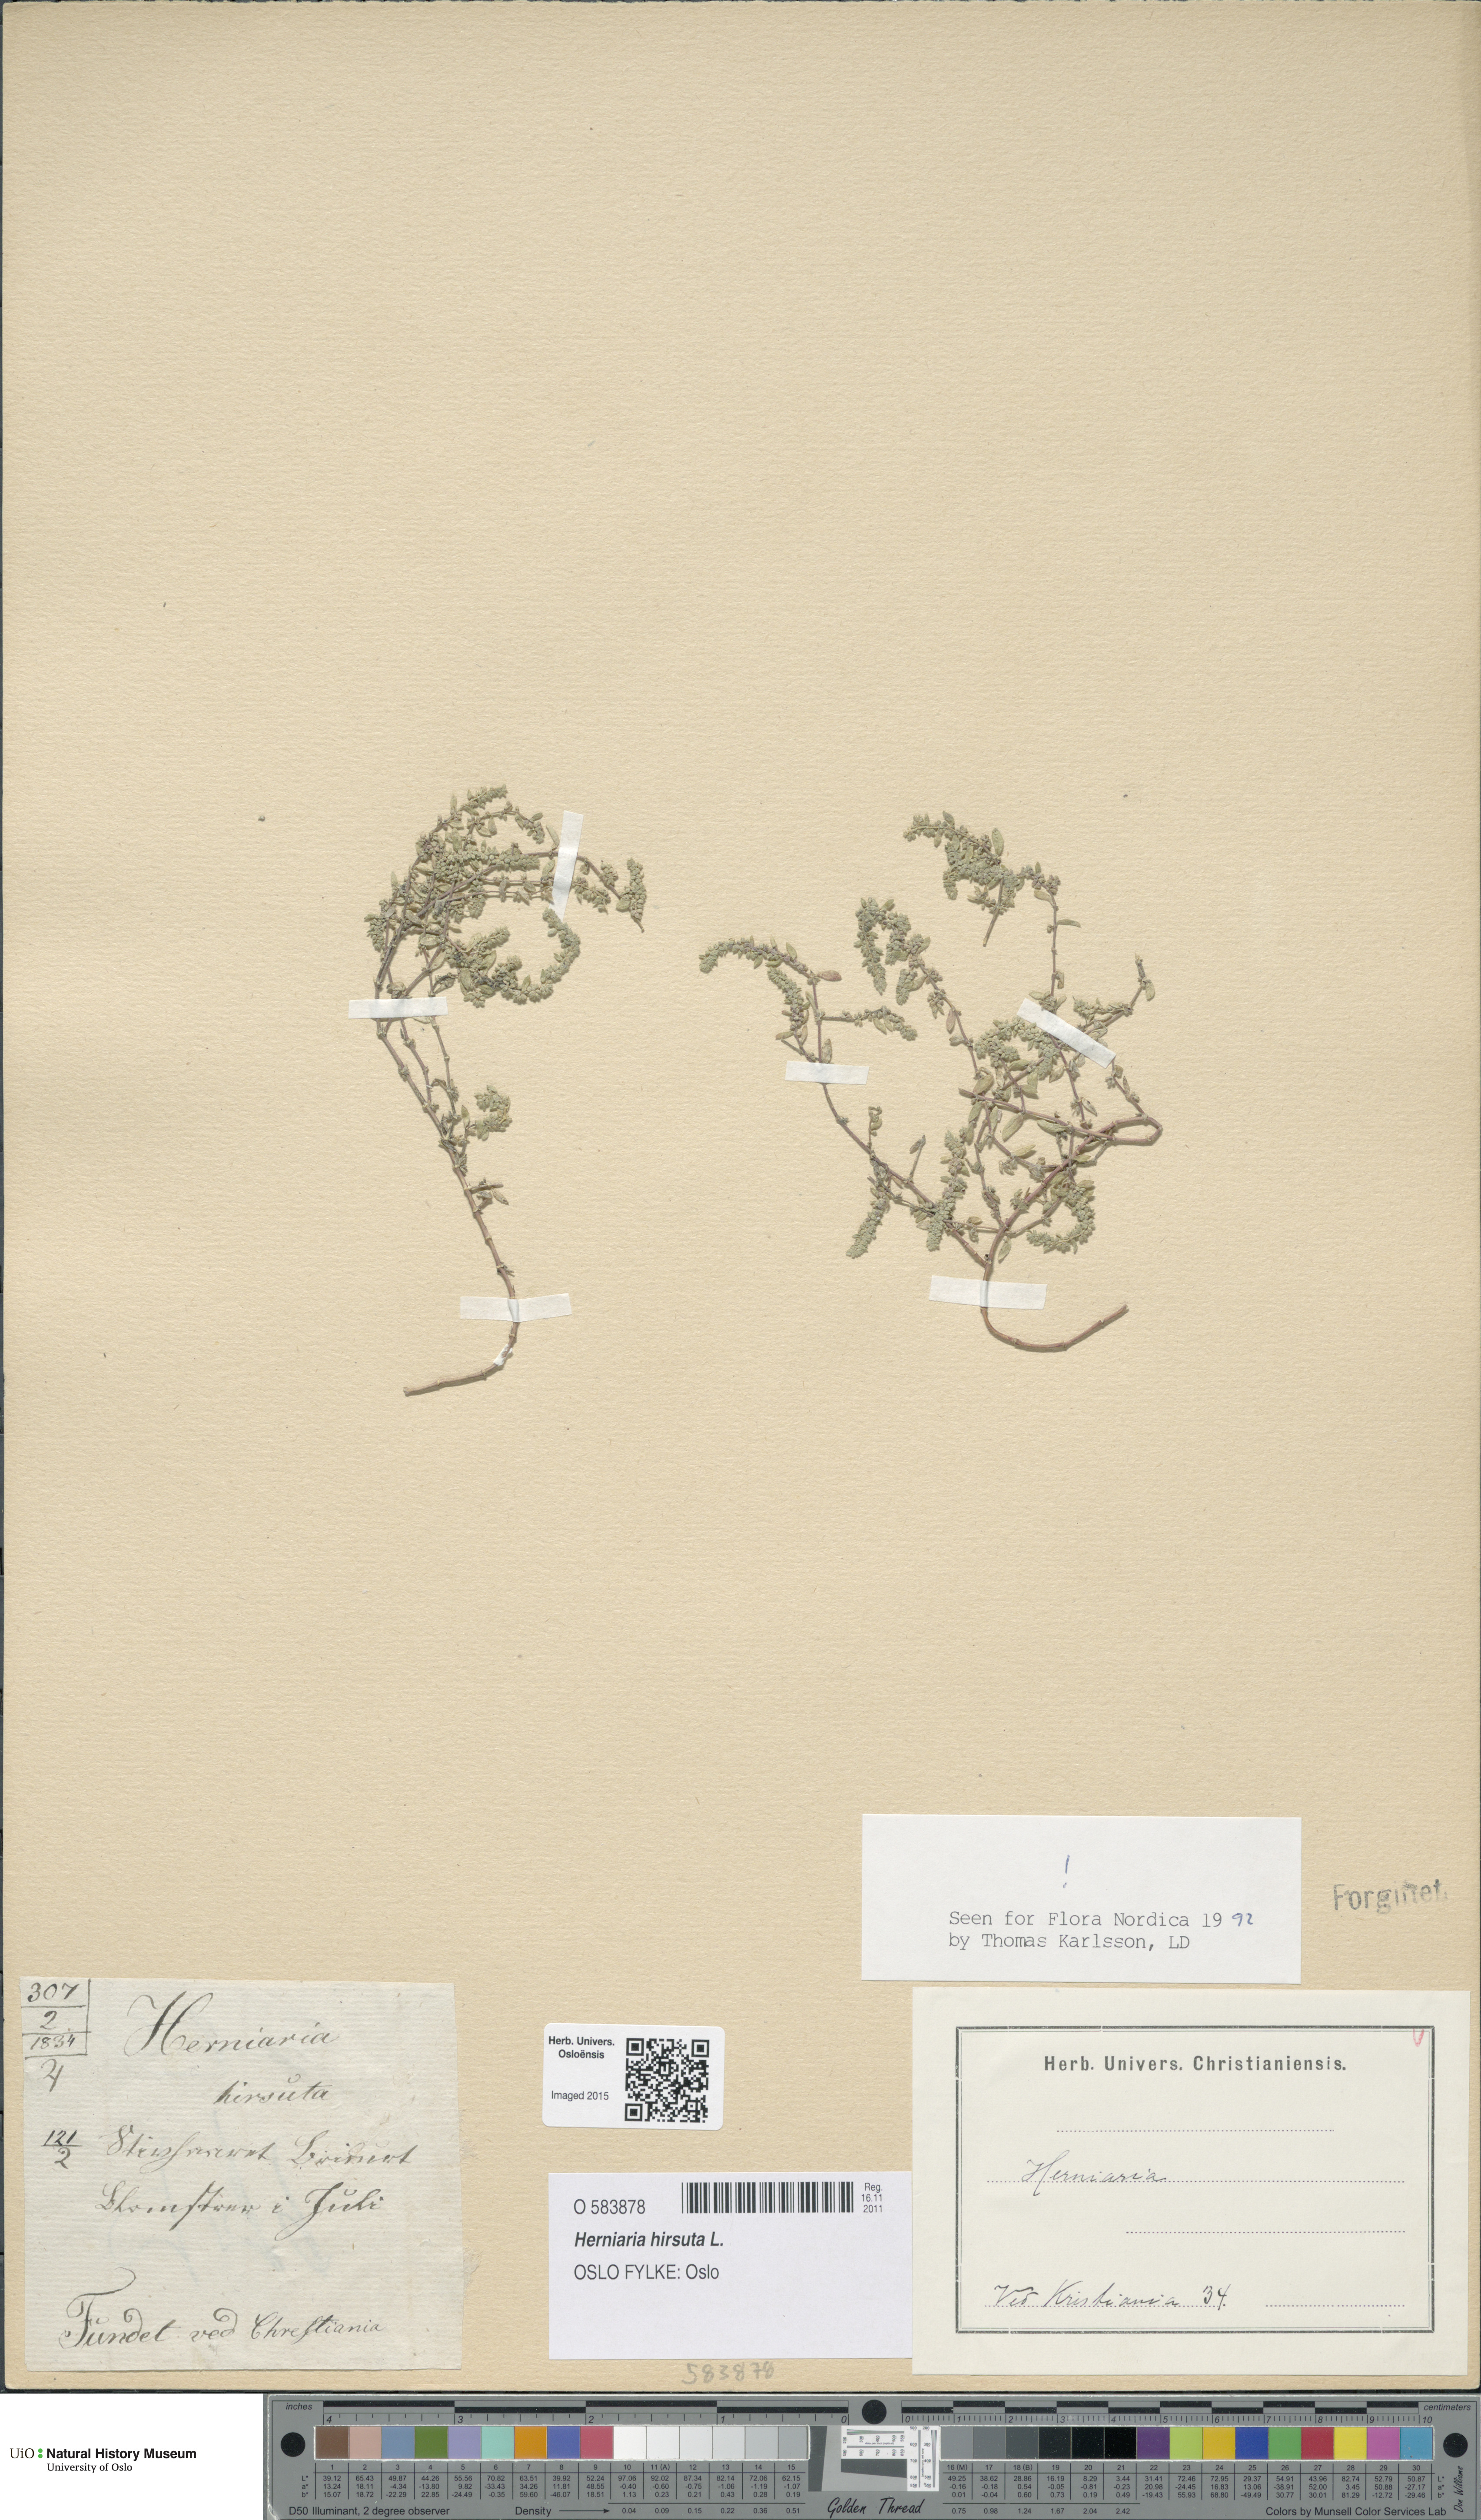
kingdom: Plantae
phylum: Tracheophyta
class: Magnoliopsida
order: Caryophyllales
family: Caryophyllaceae
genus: Herniaria
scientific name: Herniaria hirsuta
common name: Hairy rupturewort
